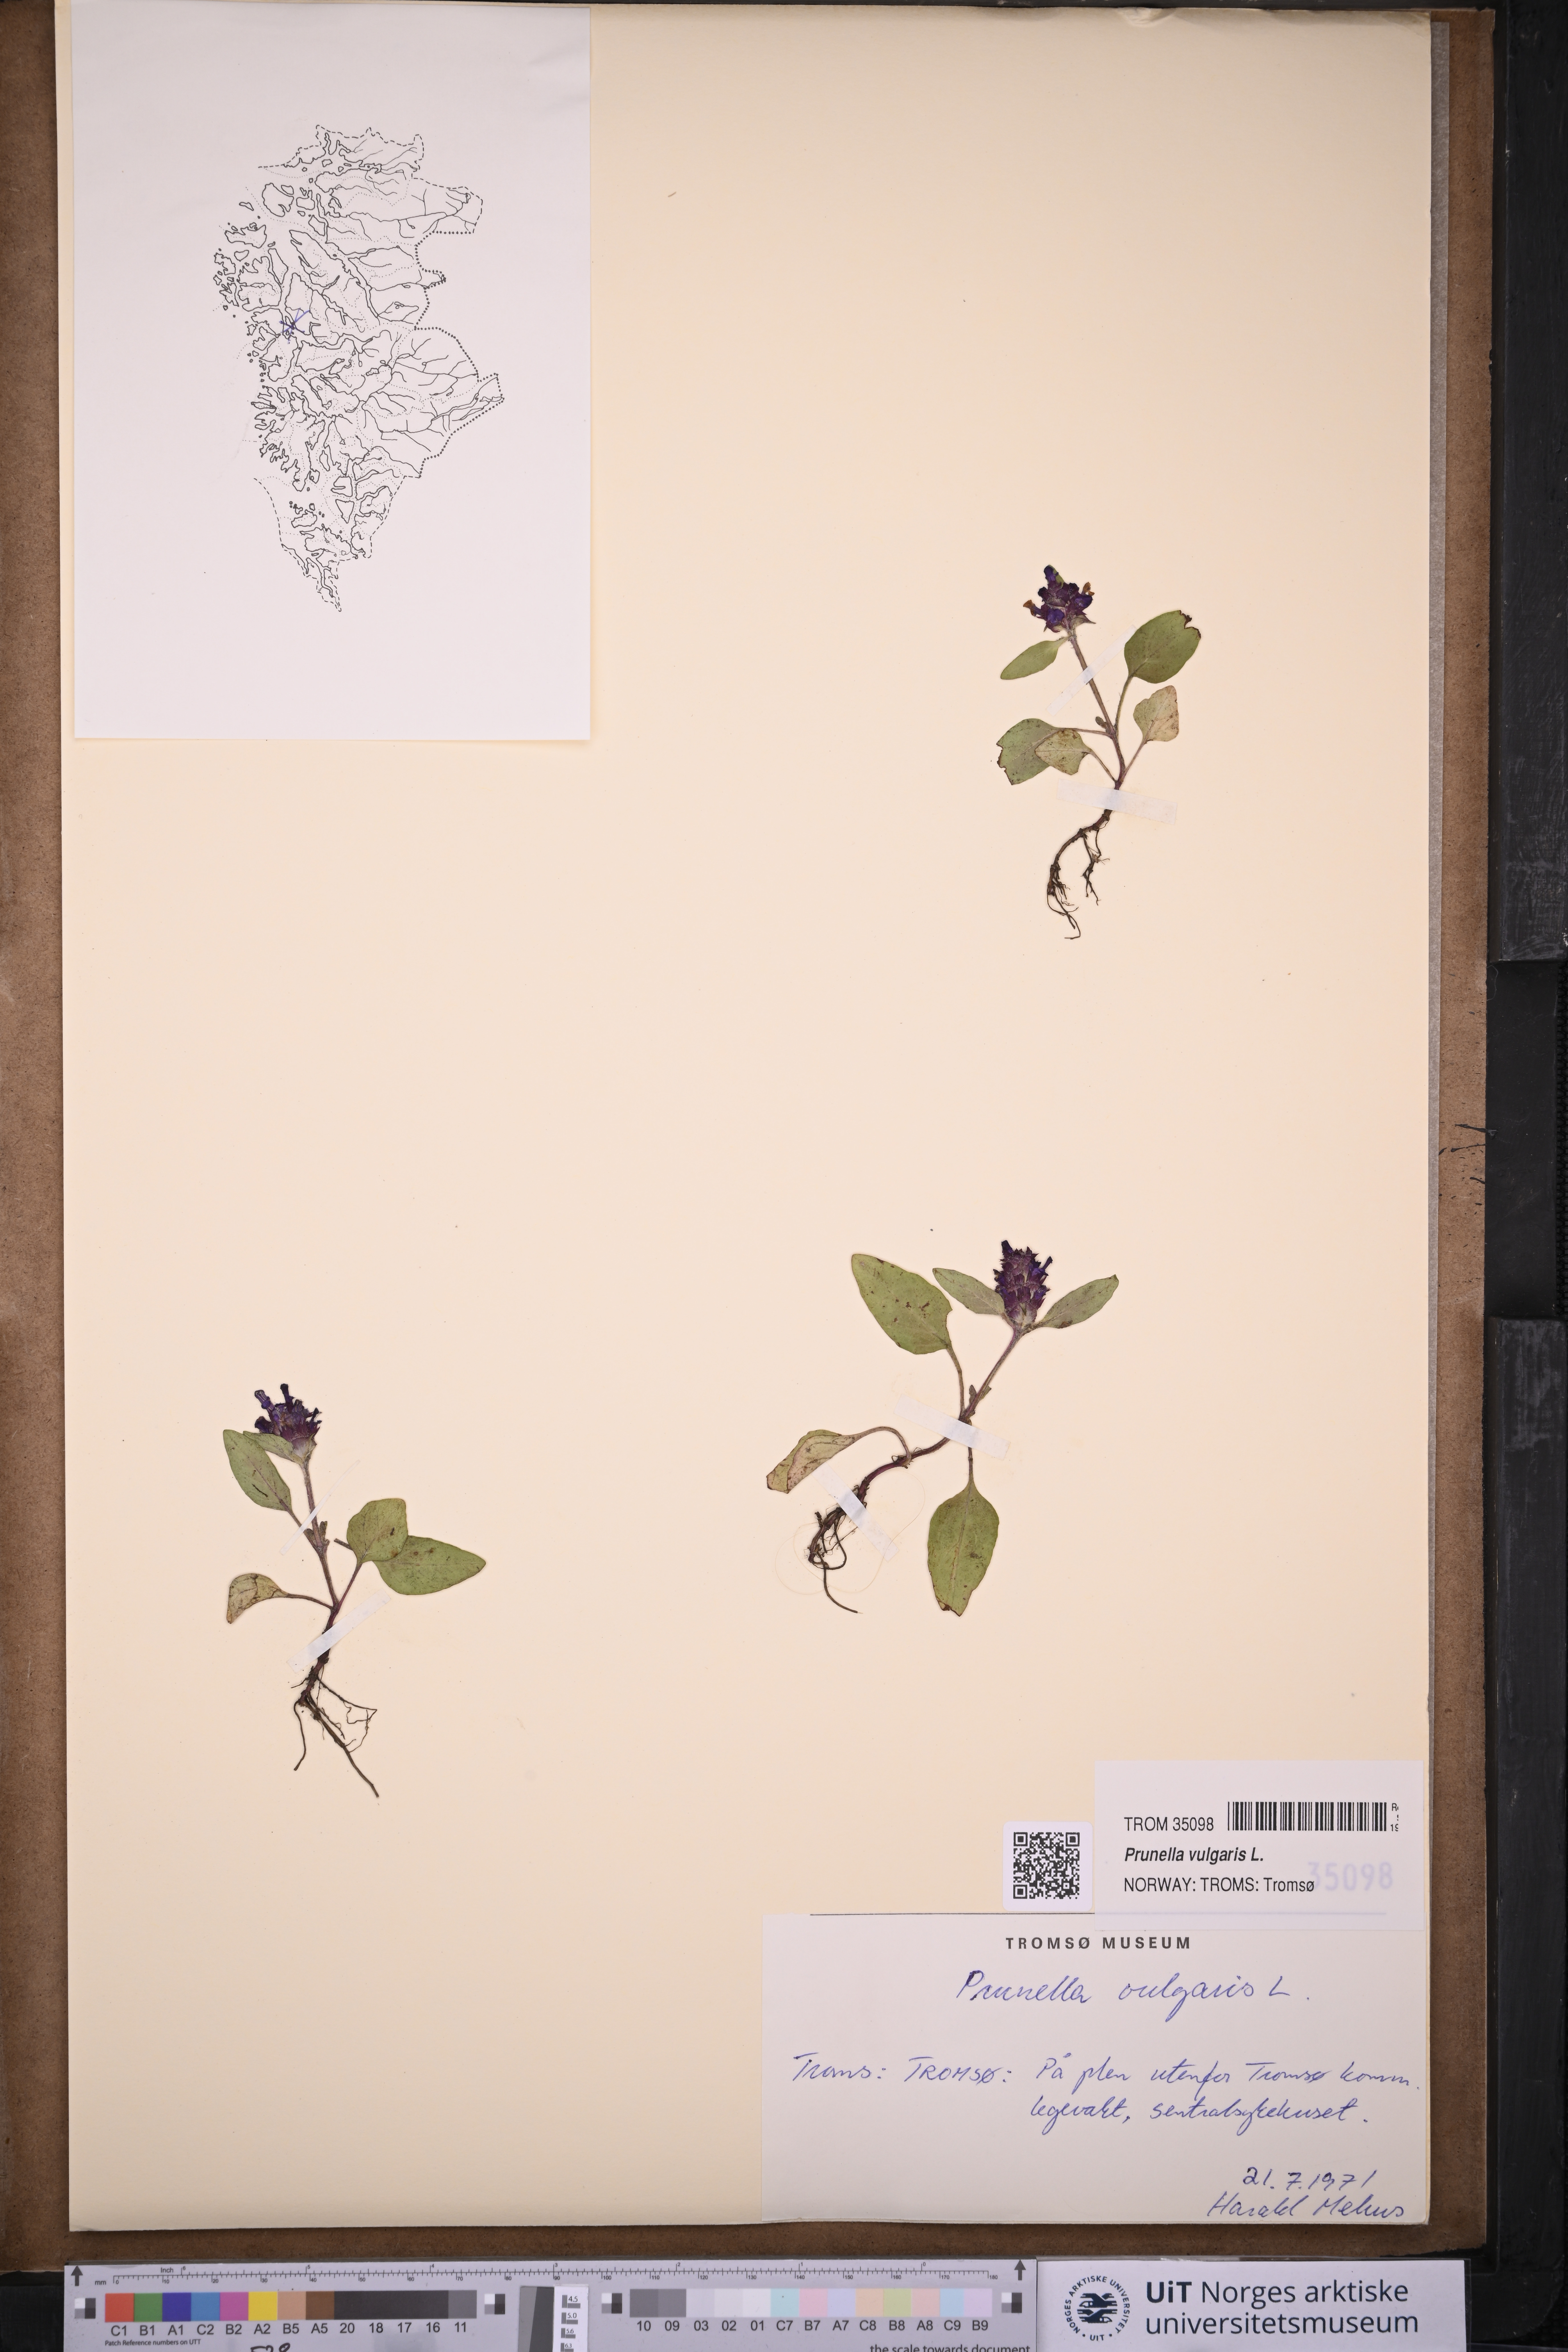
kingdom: Plantae
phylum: Tracheophyta
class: Magnoliopsida
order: Lamiales
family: Lamiaceae
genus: Prunella
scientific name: Prunella vulgaris
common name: Heal-all
